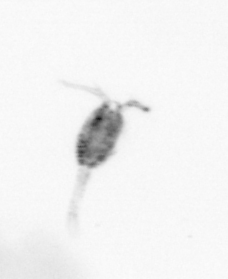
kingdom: Animalia
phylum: Arthropoda
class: Copepoda
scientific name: Copepoda
